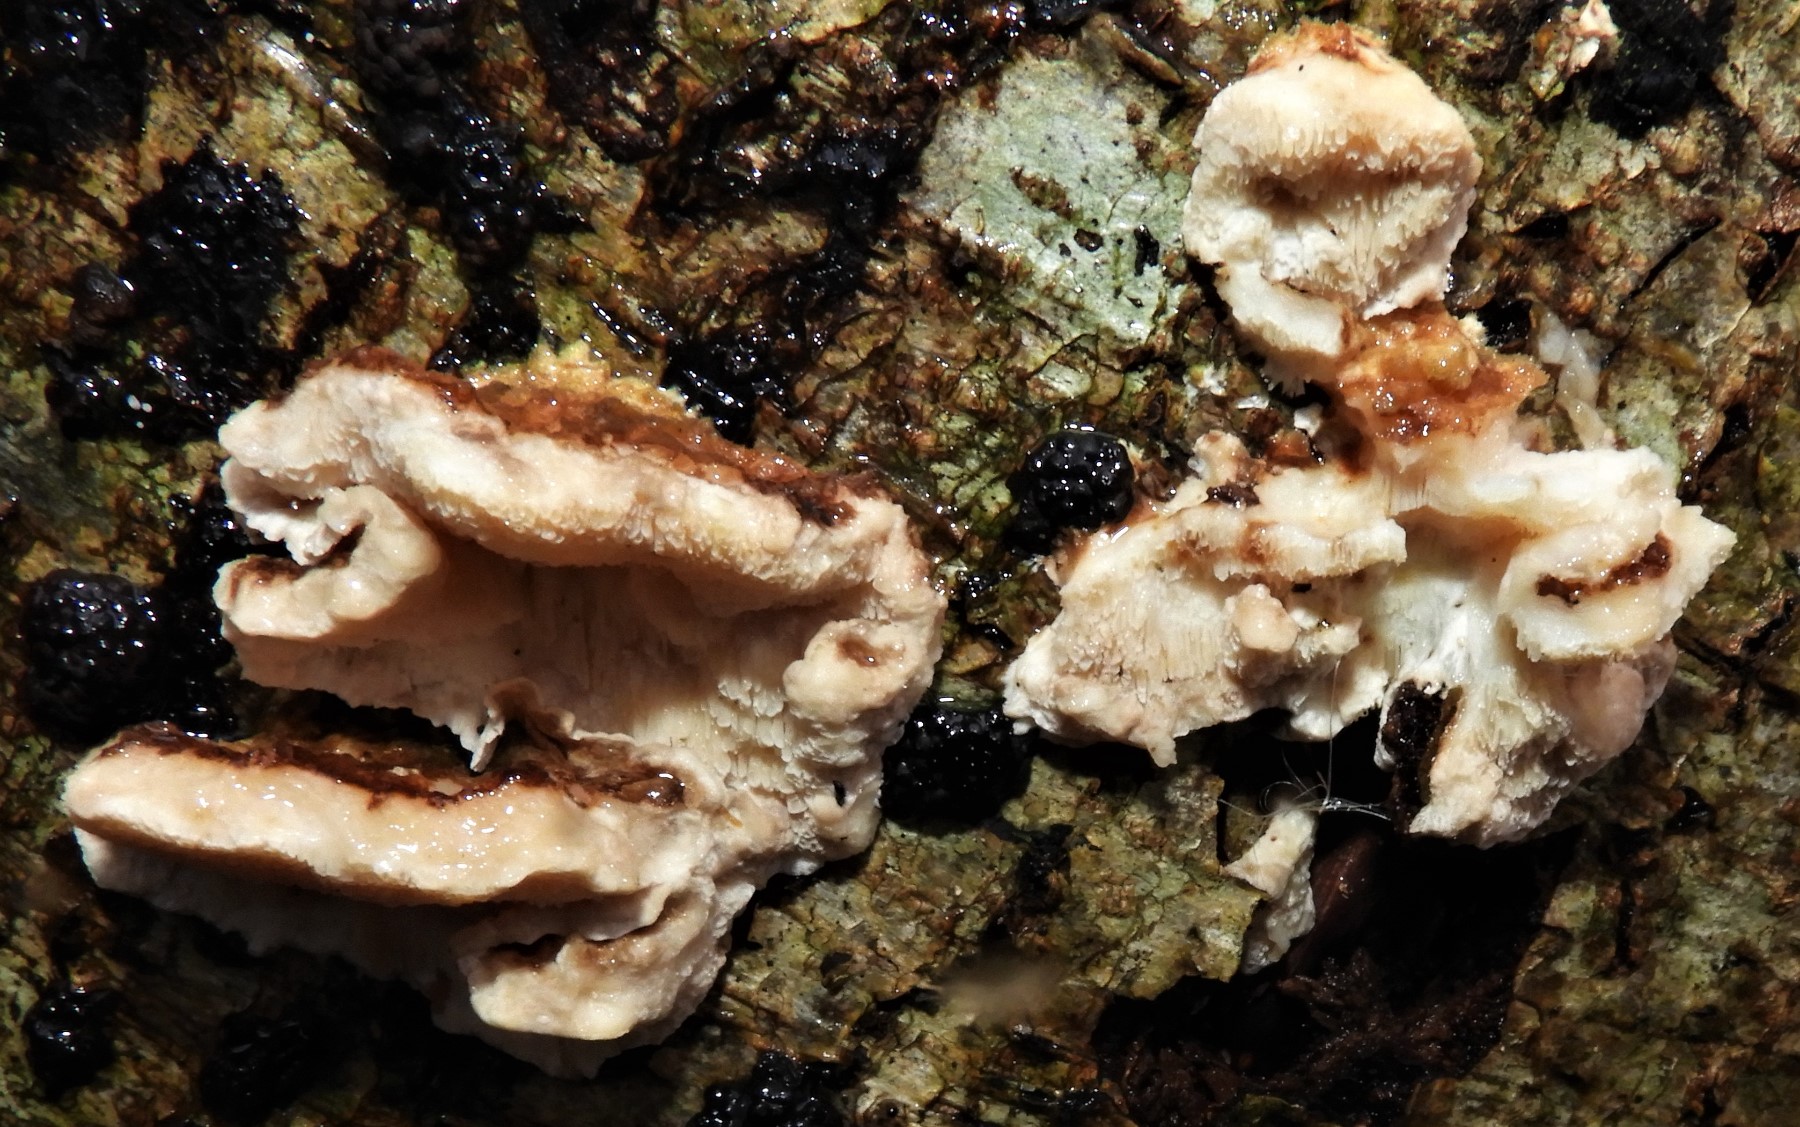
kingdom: Fungi
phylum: Basidiomycota
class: Agaricomycetes
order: Polyporales
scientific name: Polyporales
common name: poresvampordenen
